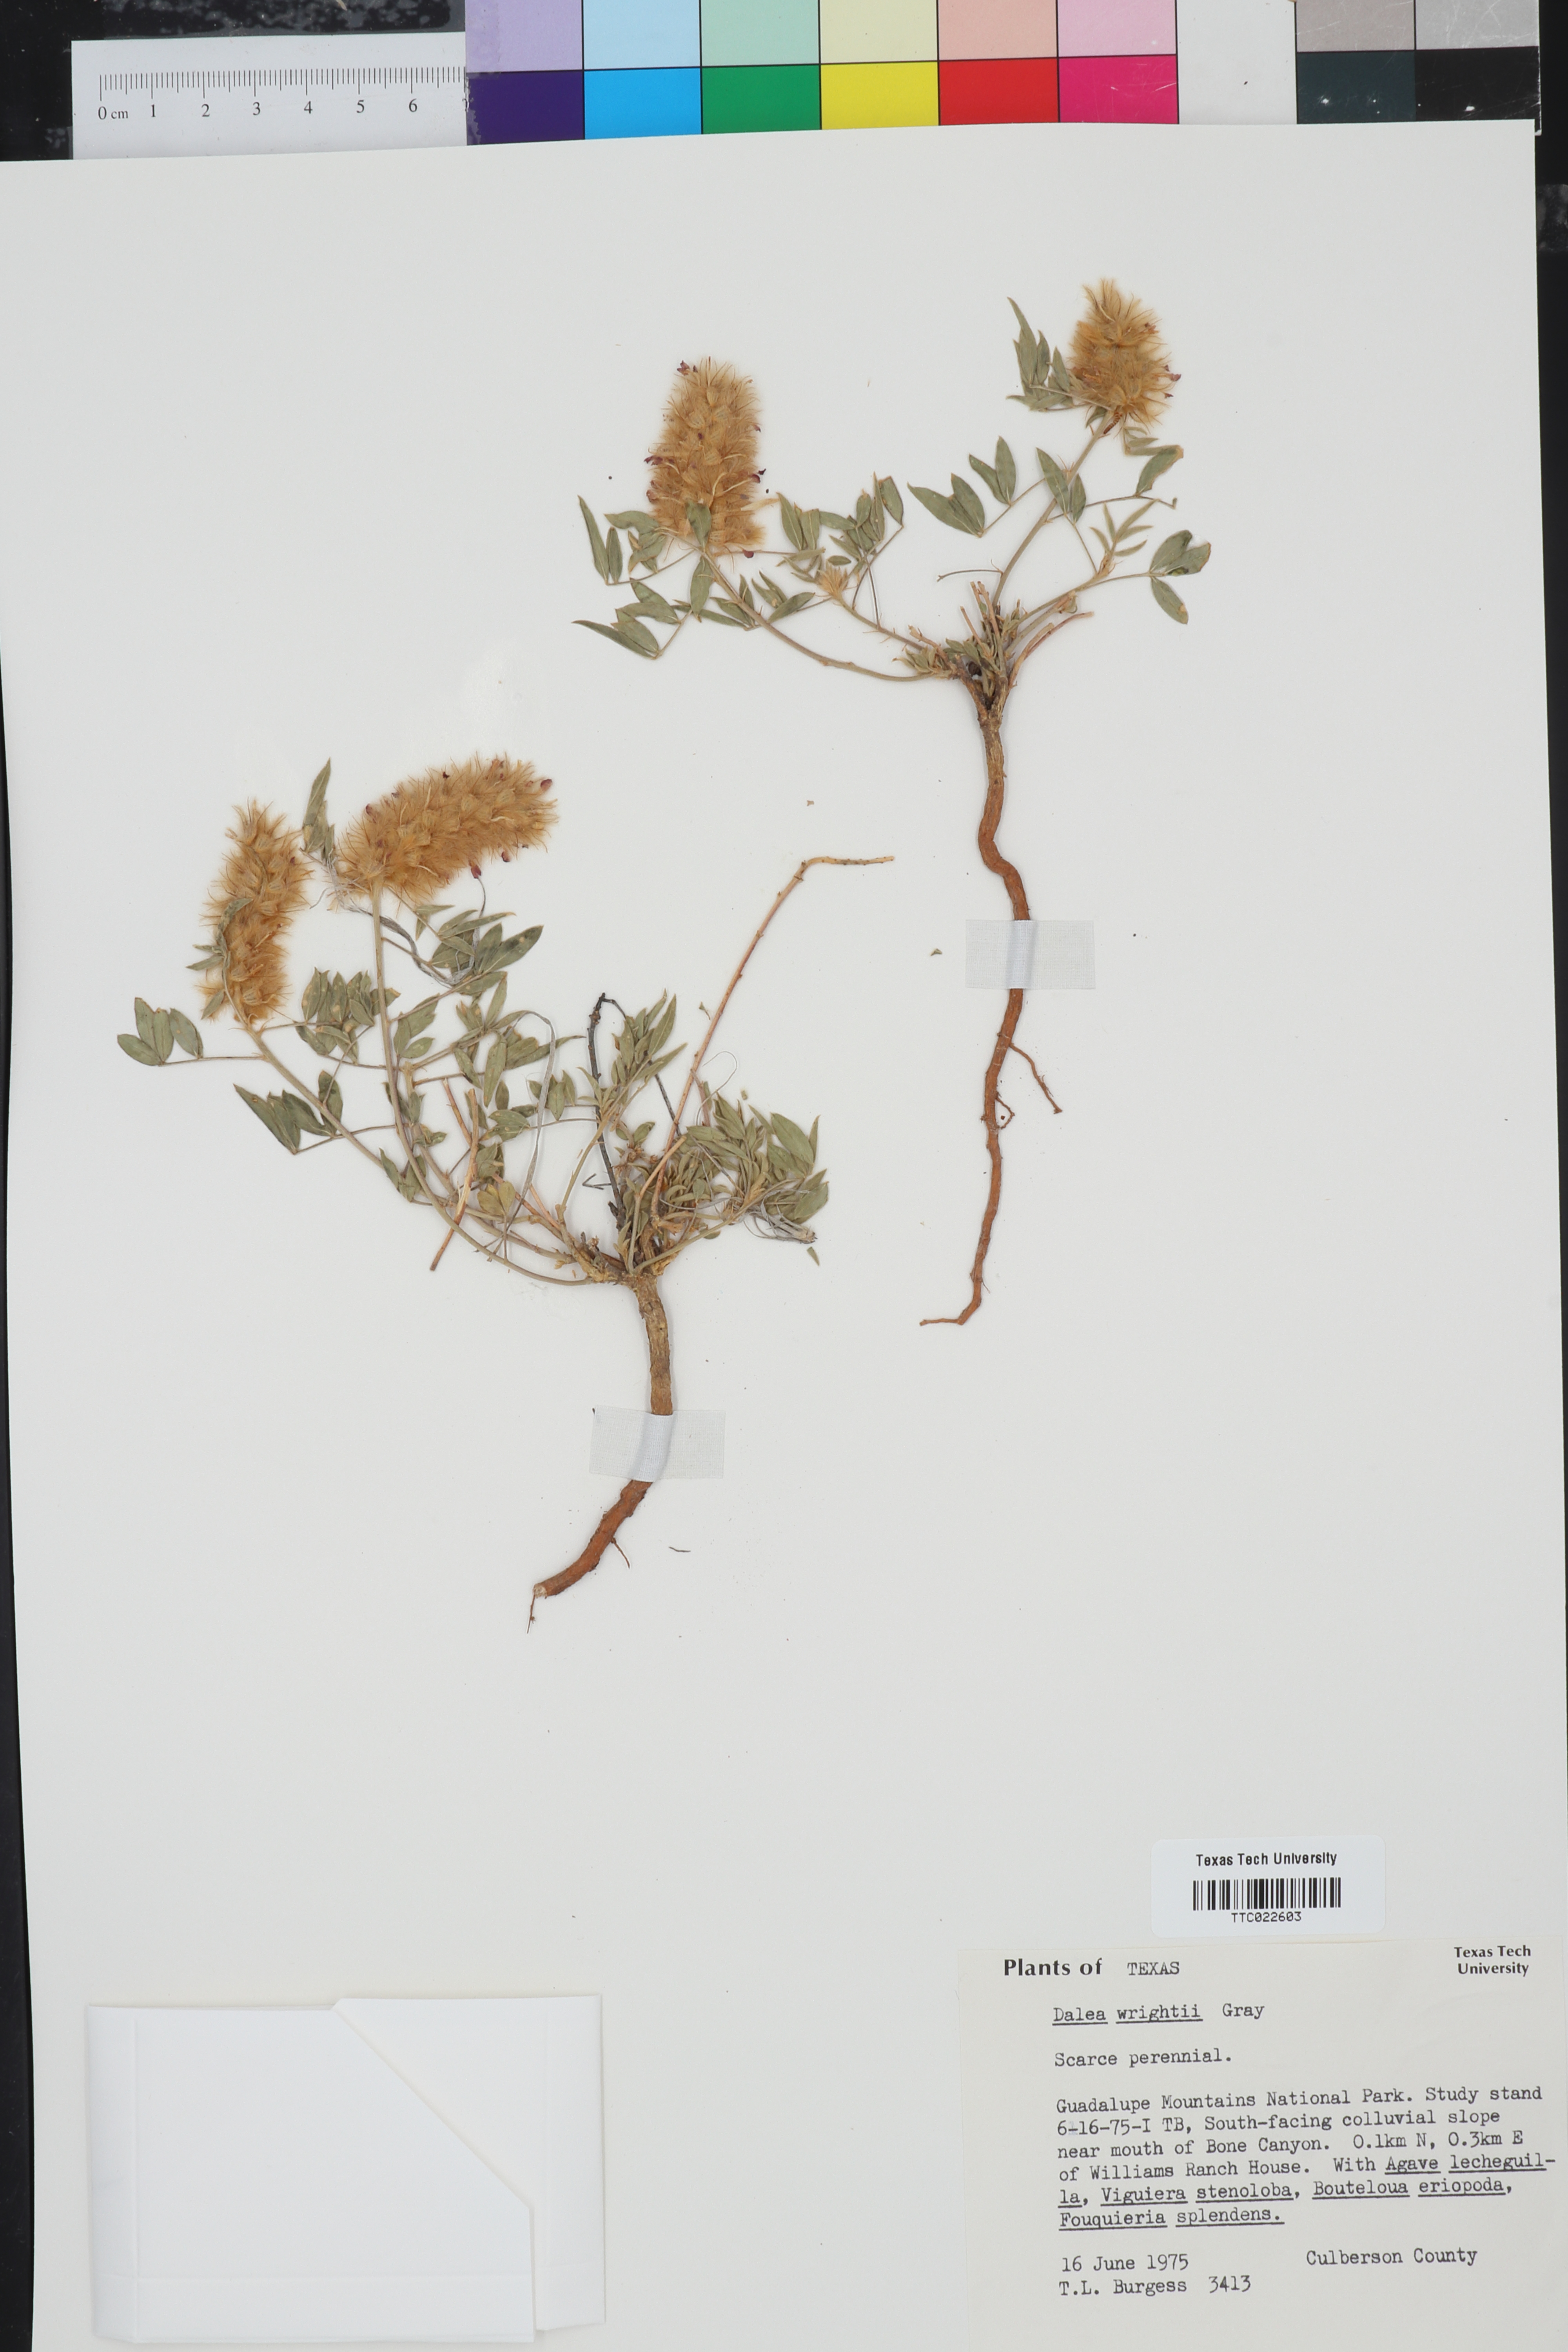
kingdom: Plantae
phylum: Tracheophyta
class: Magnoliopsida
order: Fabales
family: Fabaceae
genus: Dalea
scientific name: Dalea wrightii
